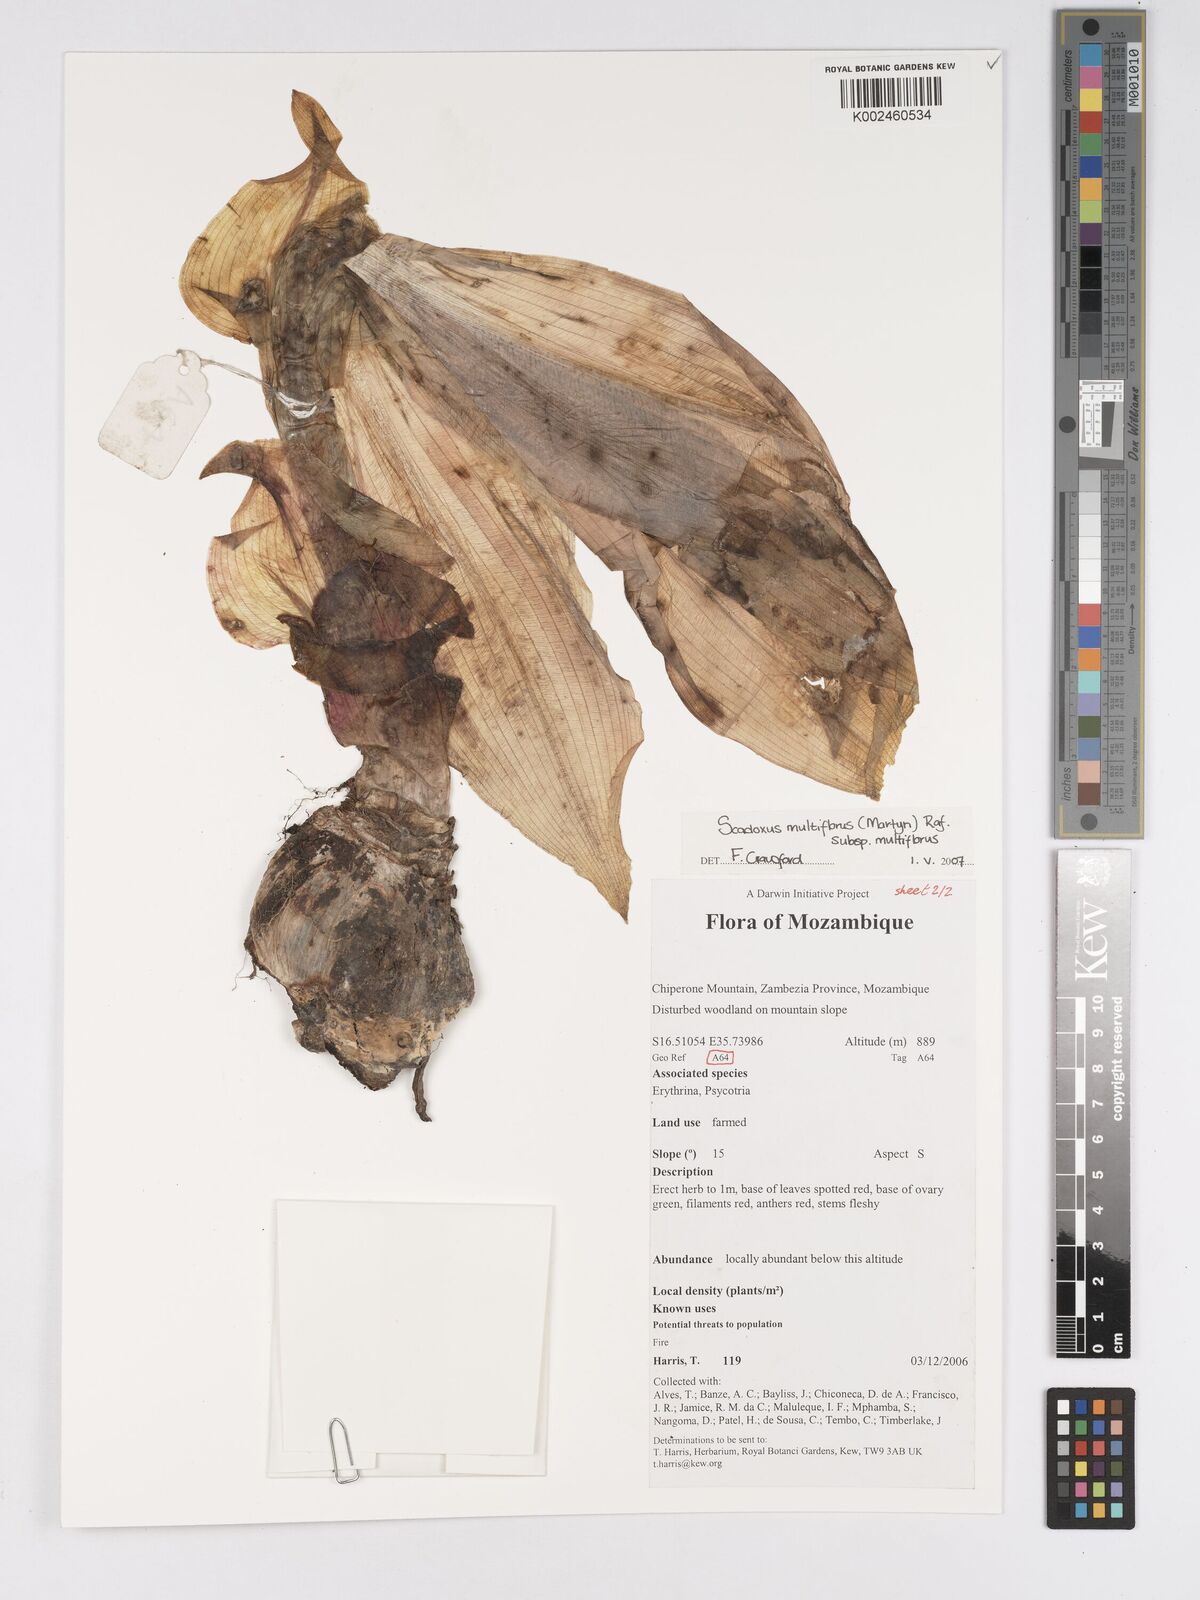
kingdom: Plantae
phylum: Tracheophyta
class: Liliopsida
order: Asparagales
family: Amaryllidaceae
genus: Scadoxus
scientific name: Scadoxus multiflorus
